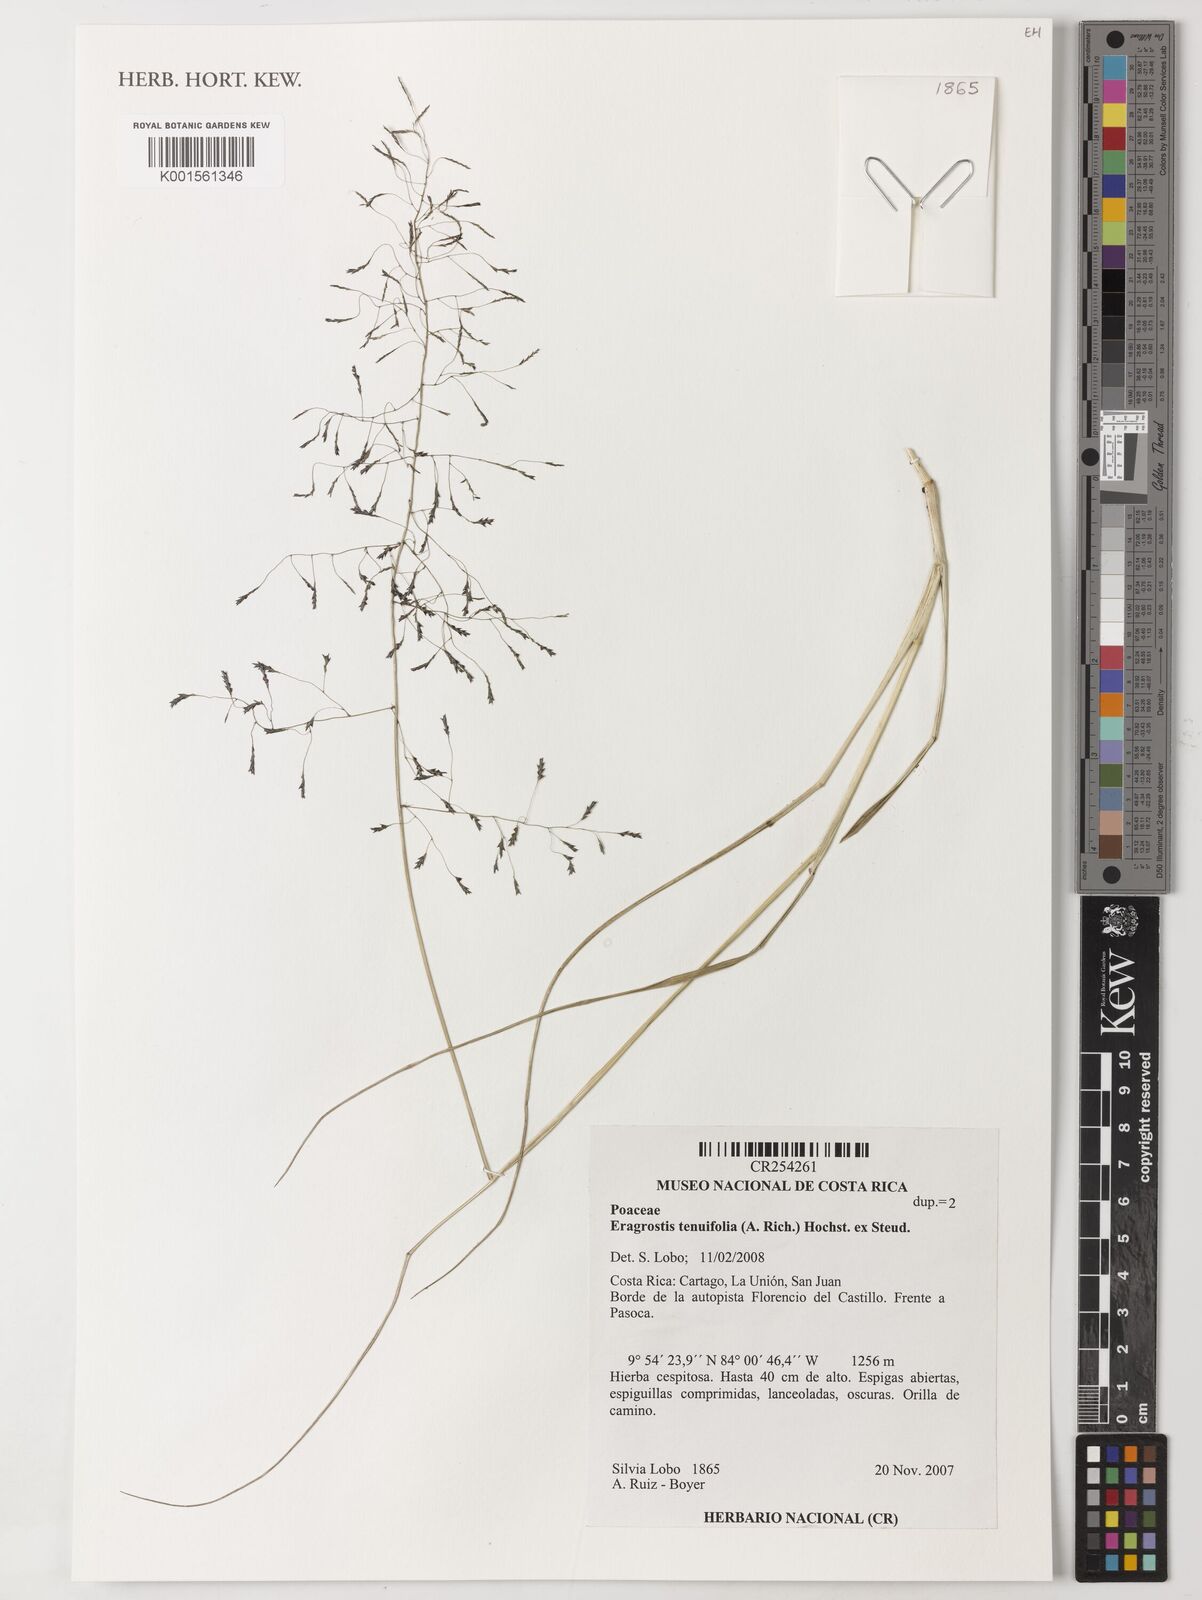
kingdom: Plantae
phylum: Tracheophyta
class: Liliopsida
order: Poales
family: Poaceae
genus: Eragrostis
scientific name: Eragrostis pilosa
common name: Indian lovegrass
